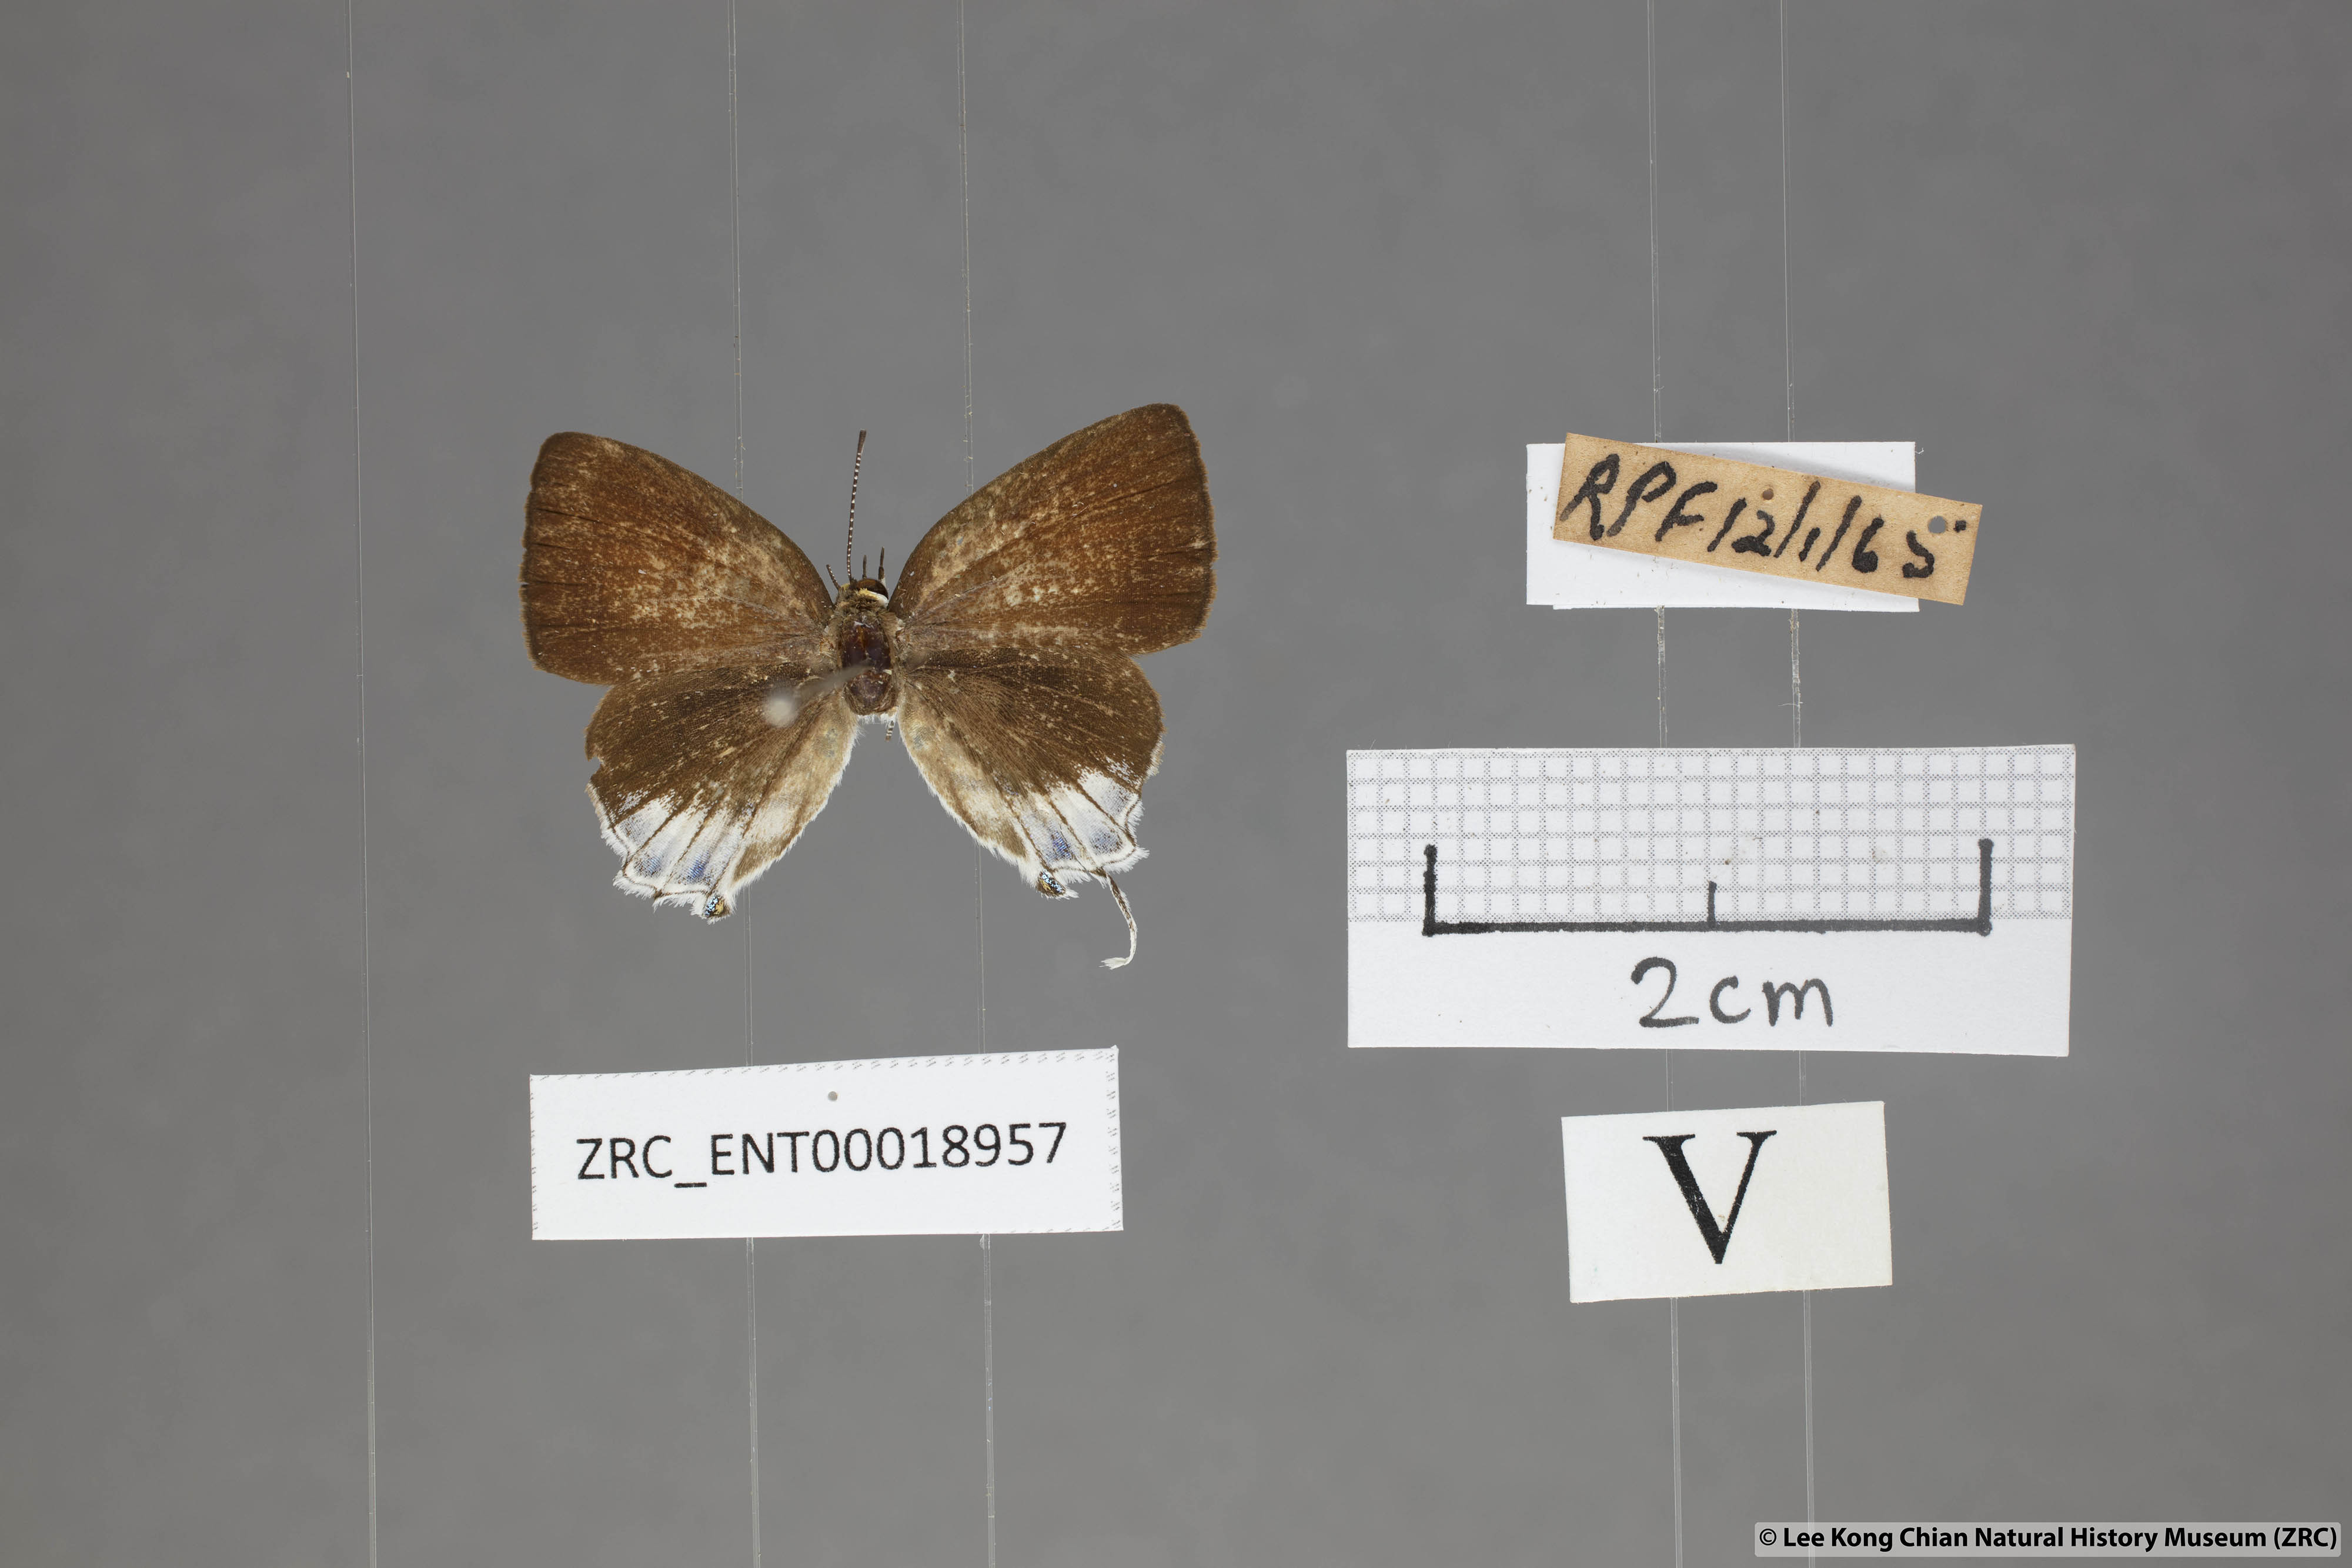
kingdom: Animalia
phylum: Arthropoda
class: Insecta
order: Lepidoptera
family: Lycaenidae
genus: Araotes
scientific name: Araotes lapithis
